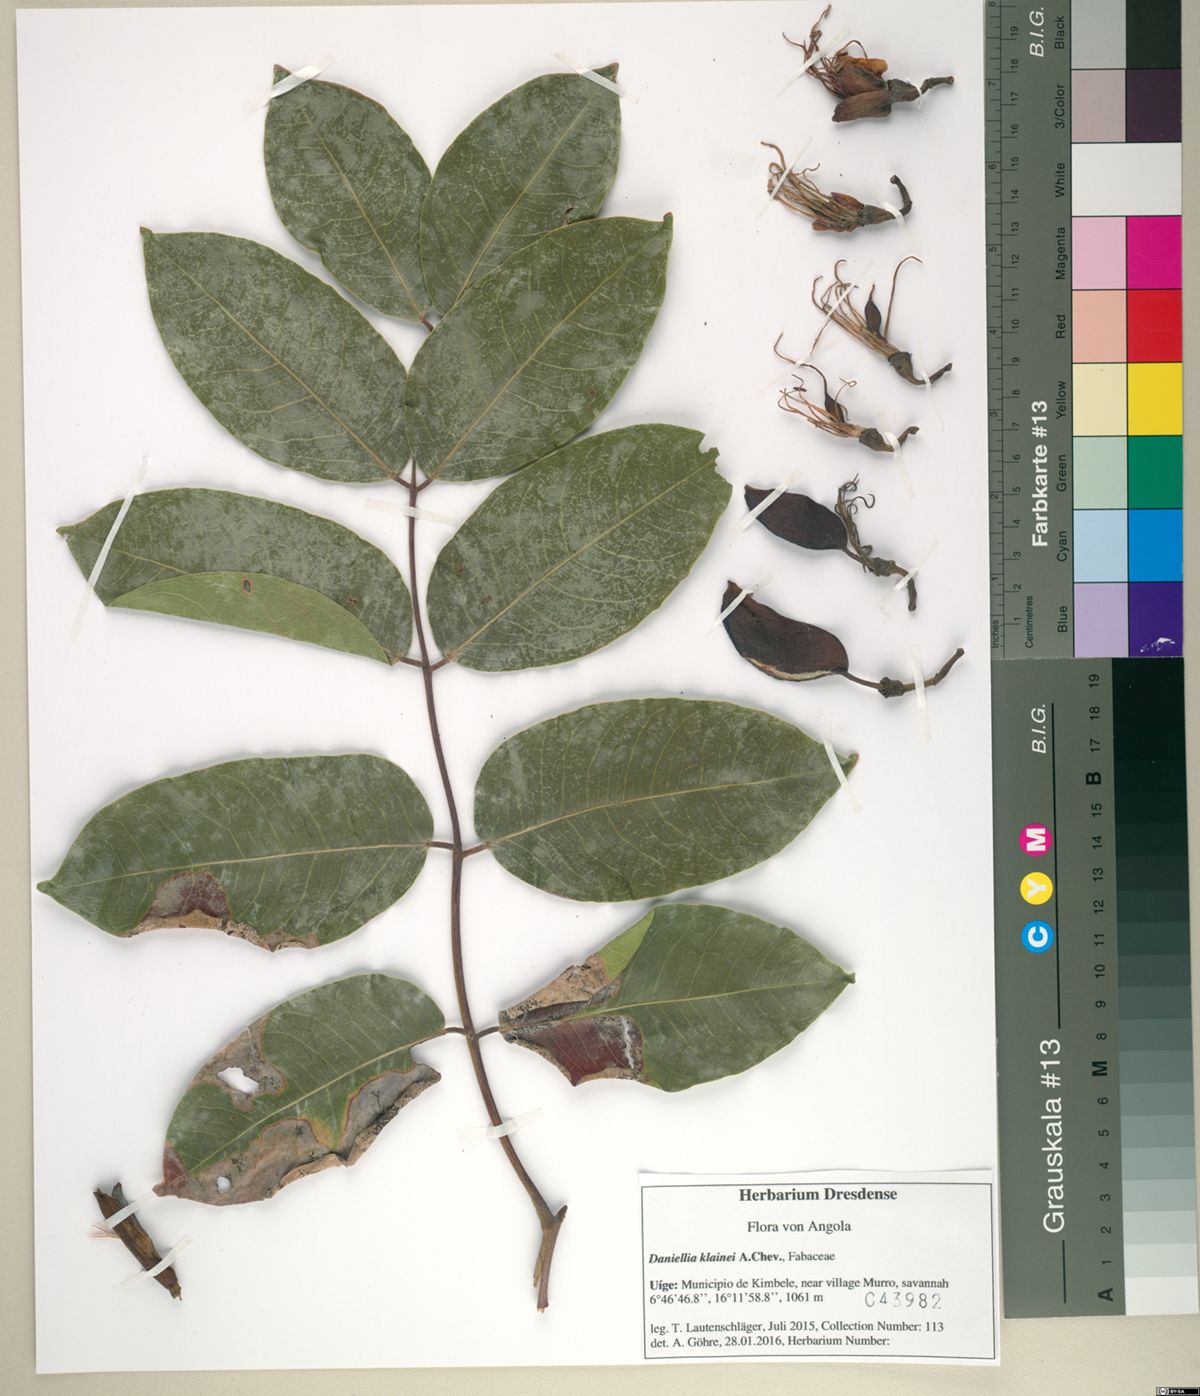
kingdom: Plantae
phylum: Tracheophyta
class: Magnoliopsida
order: Fabales
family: Fabaceae
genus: Daniellia
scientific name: Daniellia klainei
